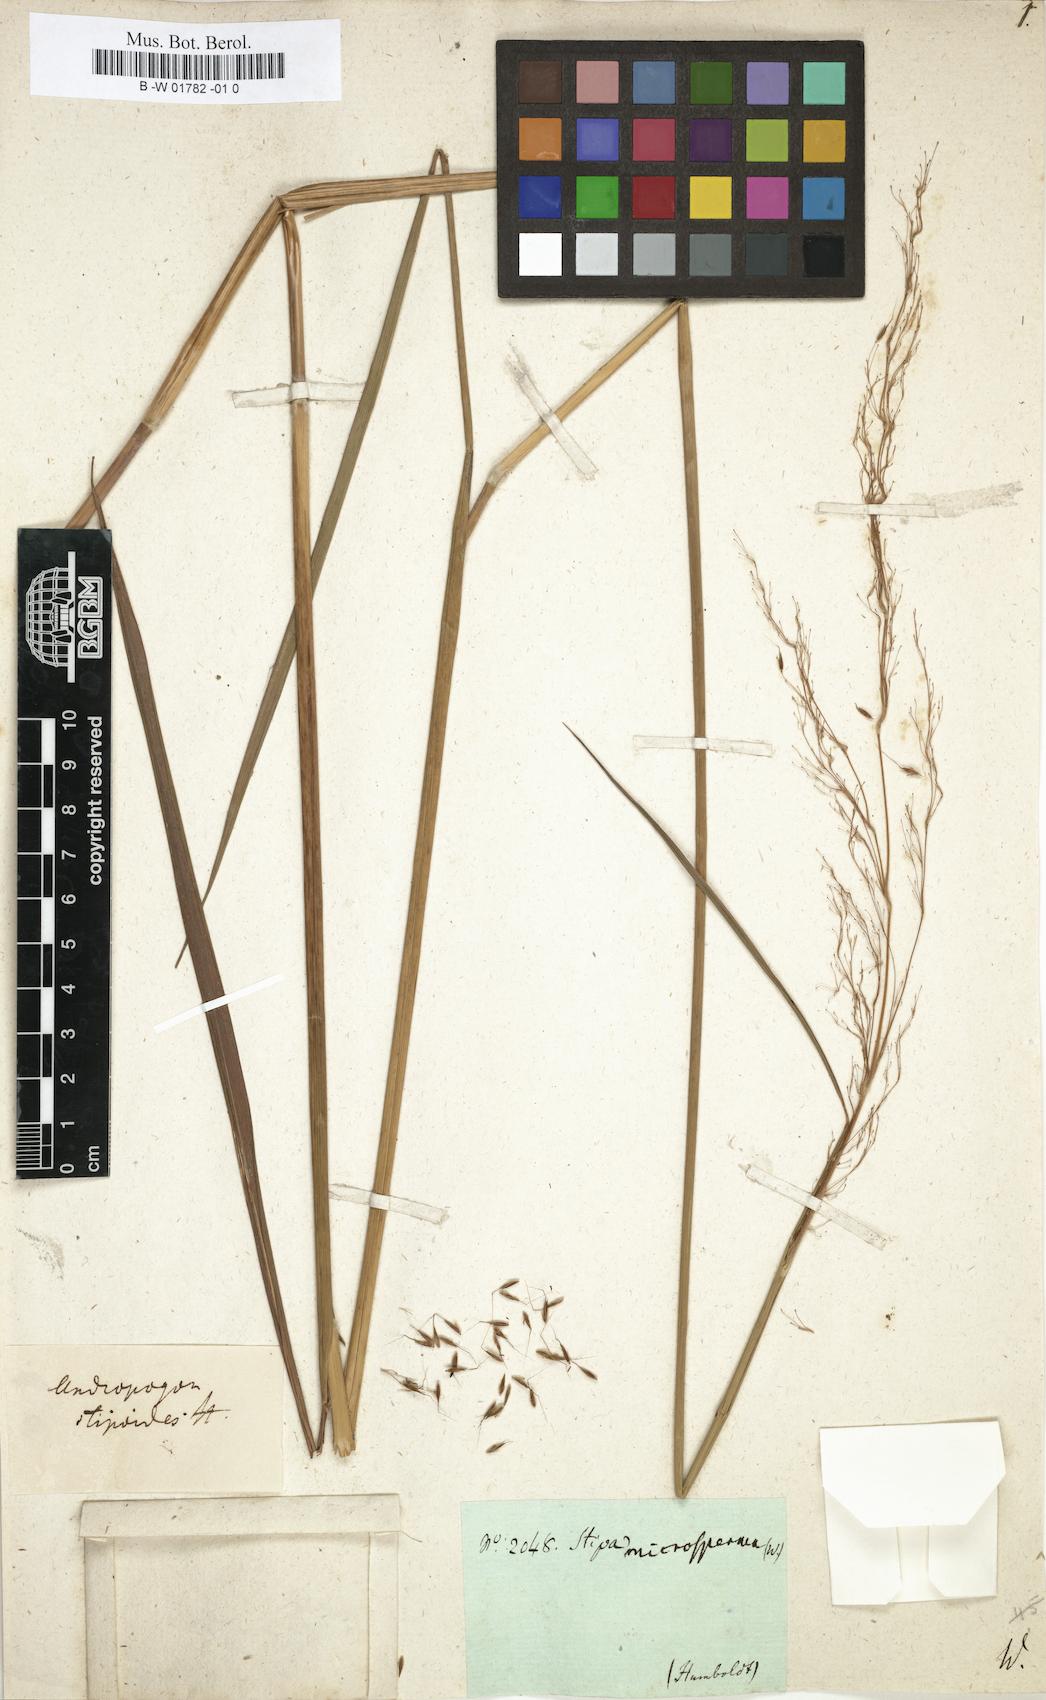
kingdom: Plantae
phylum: Tracheophyta
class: Liliopsida
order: Poales
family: Poaceae
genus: Sorghastrum
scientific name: Sorghastrum stipoides
